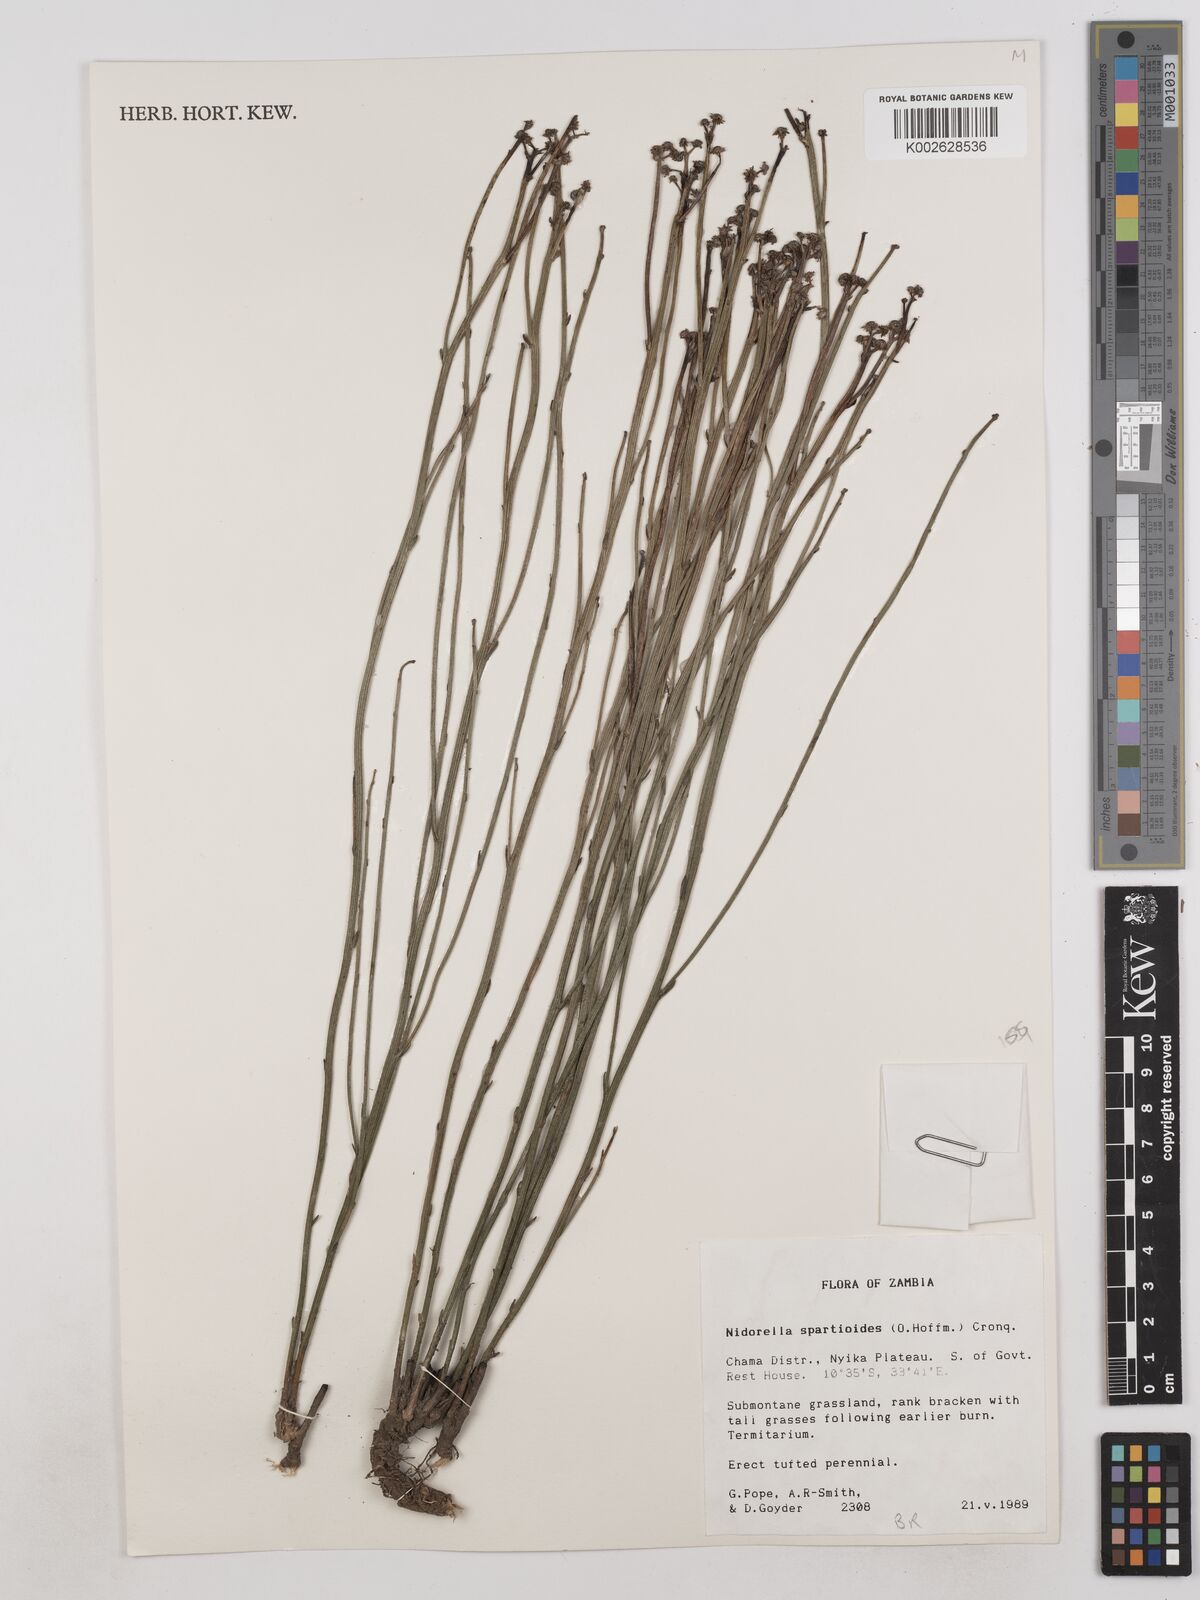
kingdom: Plantae
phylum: Tracheophyta
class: Magnoliopsida
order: Asterales
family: Asteraceae
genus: Nidorella
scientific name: Nidorella spartioides
